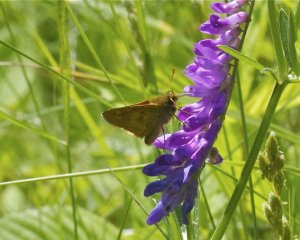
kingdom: Animalia
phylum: Arthropoda
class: Insecta
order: Lepidoptera
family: Hesperiidae
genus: Polites
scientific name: Polites
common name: Long Dash Skipper
